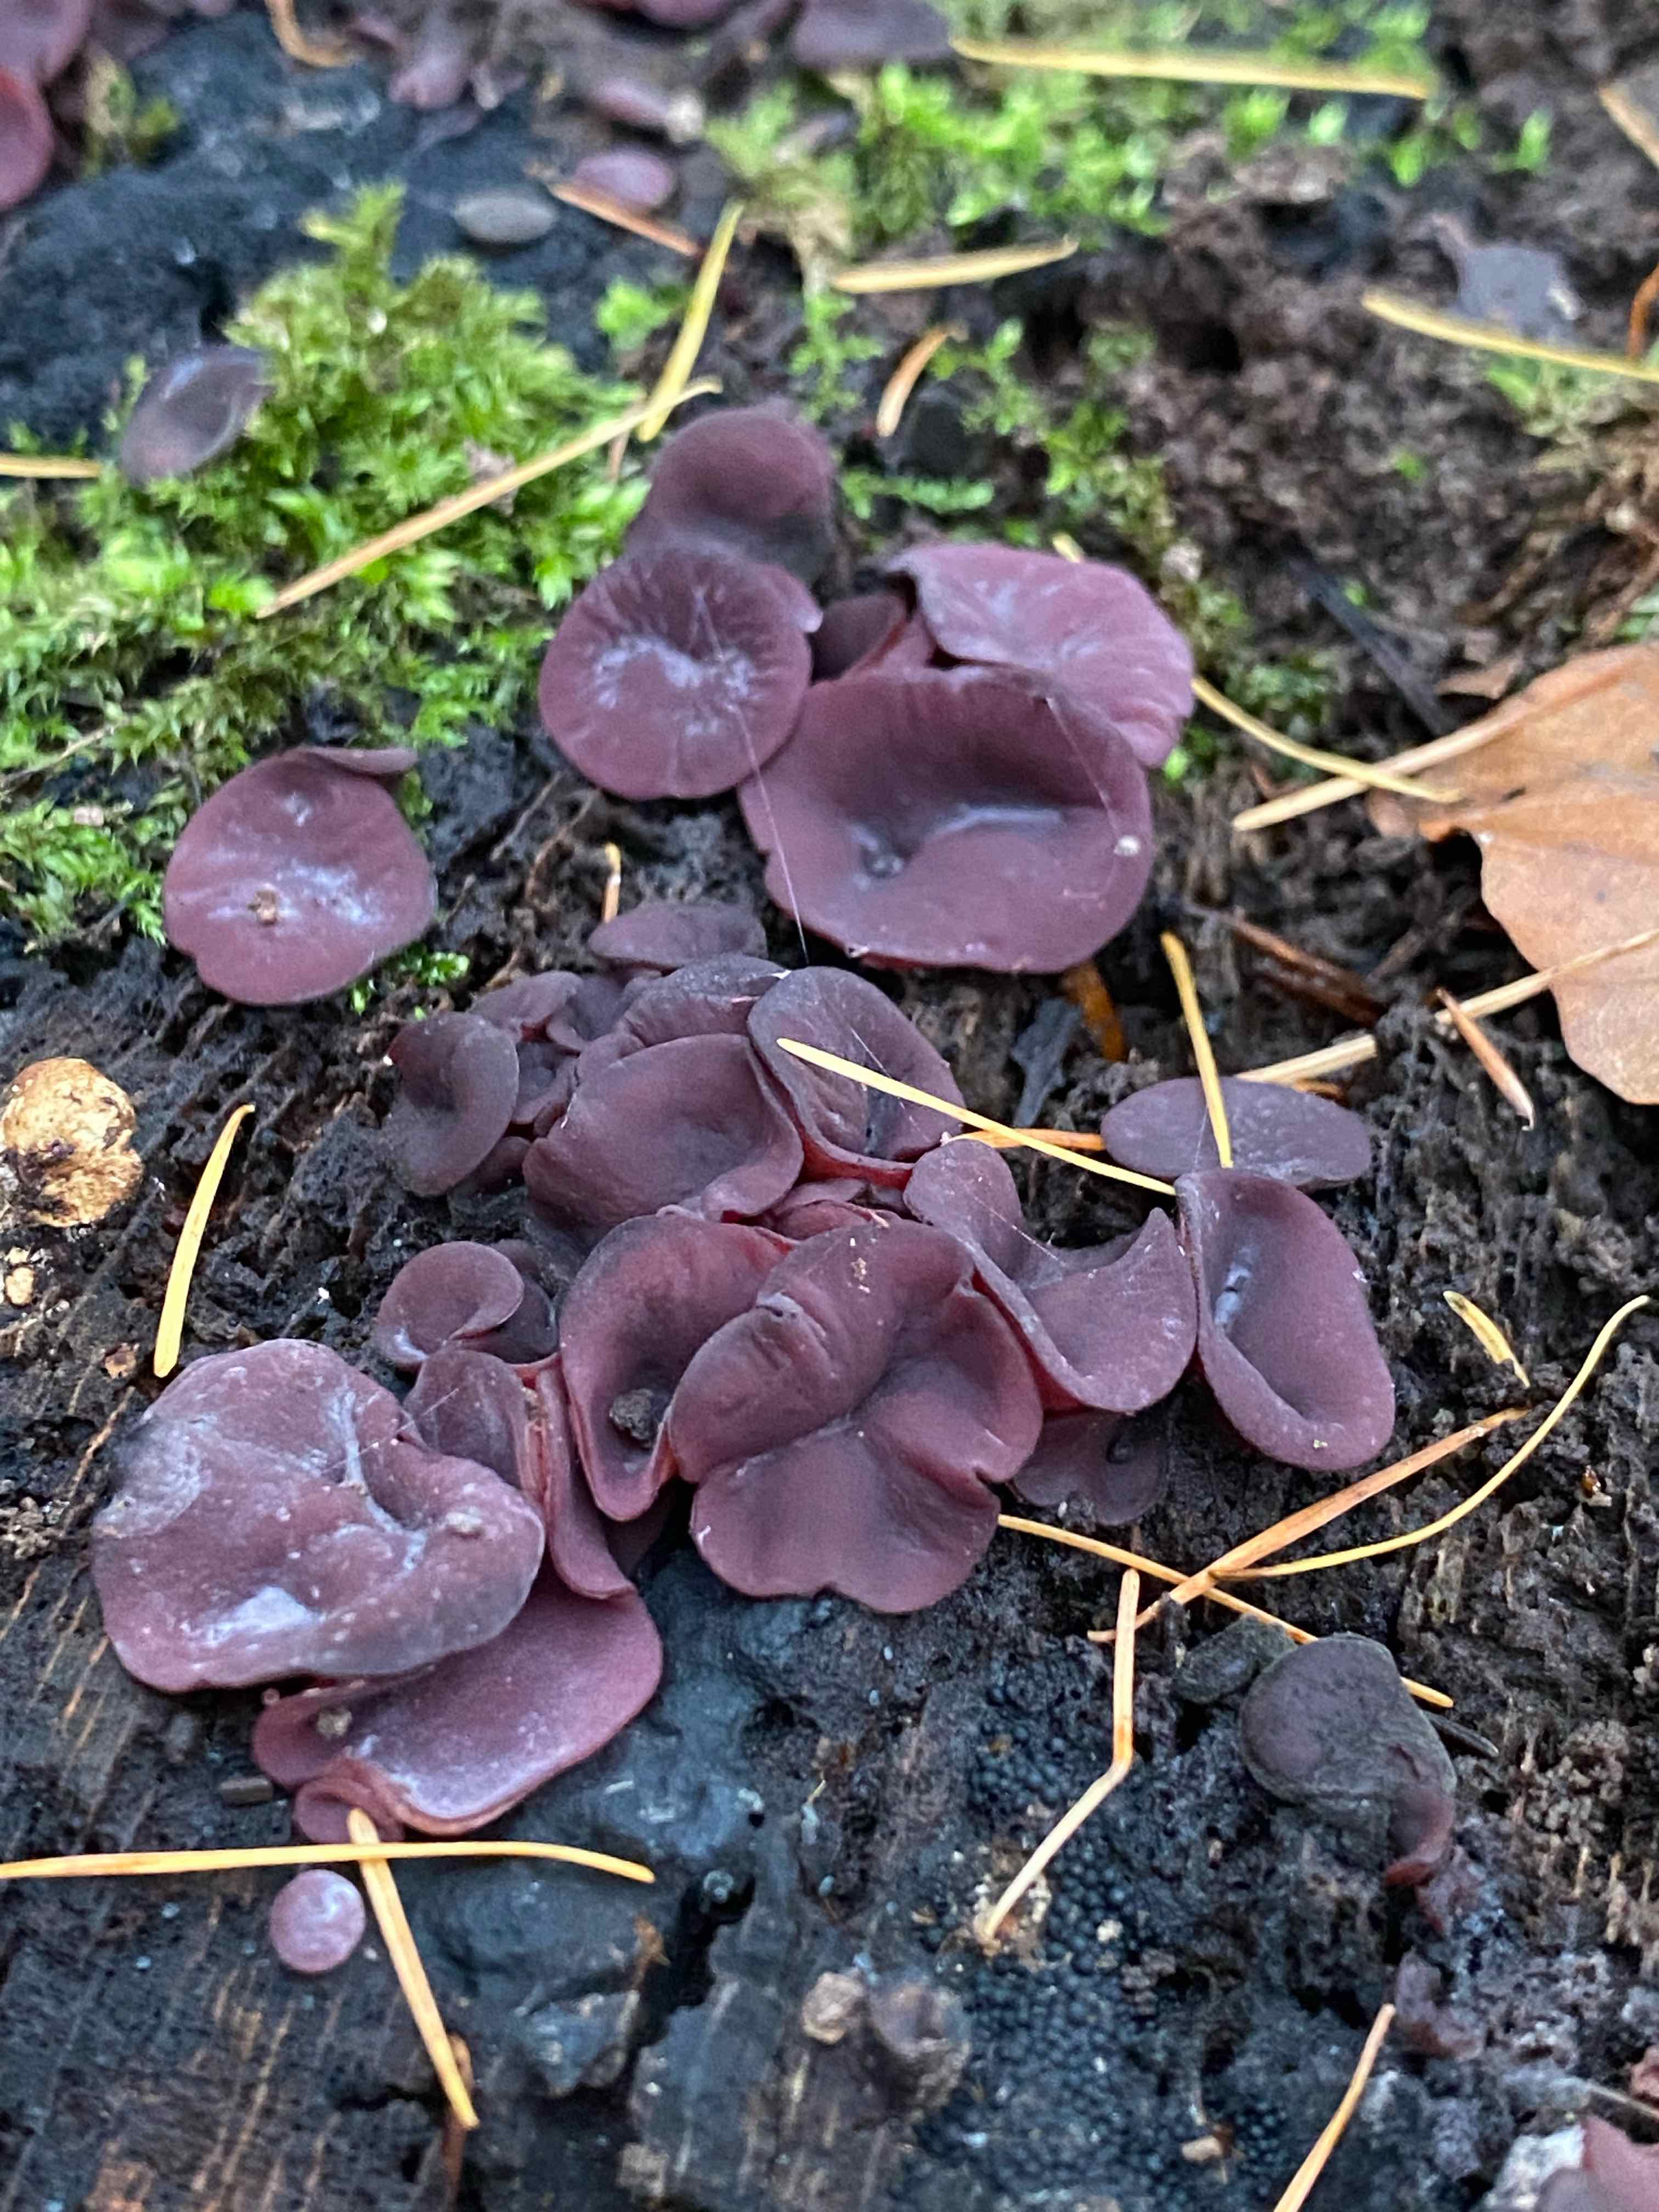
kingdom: Fungi
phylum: Ascomycota
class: Leotiomycetes
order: Helotiales
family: Gelatinodiscaceae
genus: Ascocoryne
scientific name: Ascocoryne cylichnium
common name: stor sejskive
